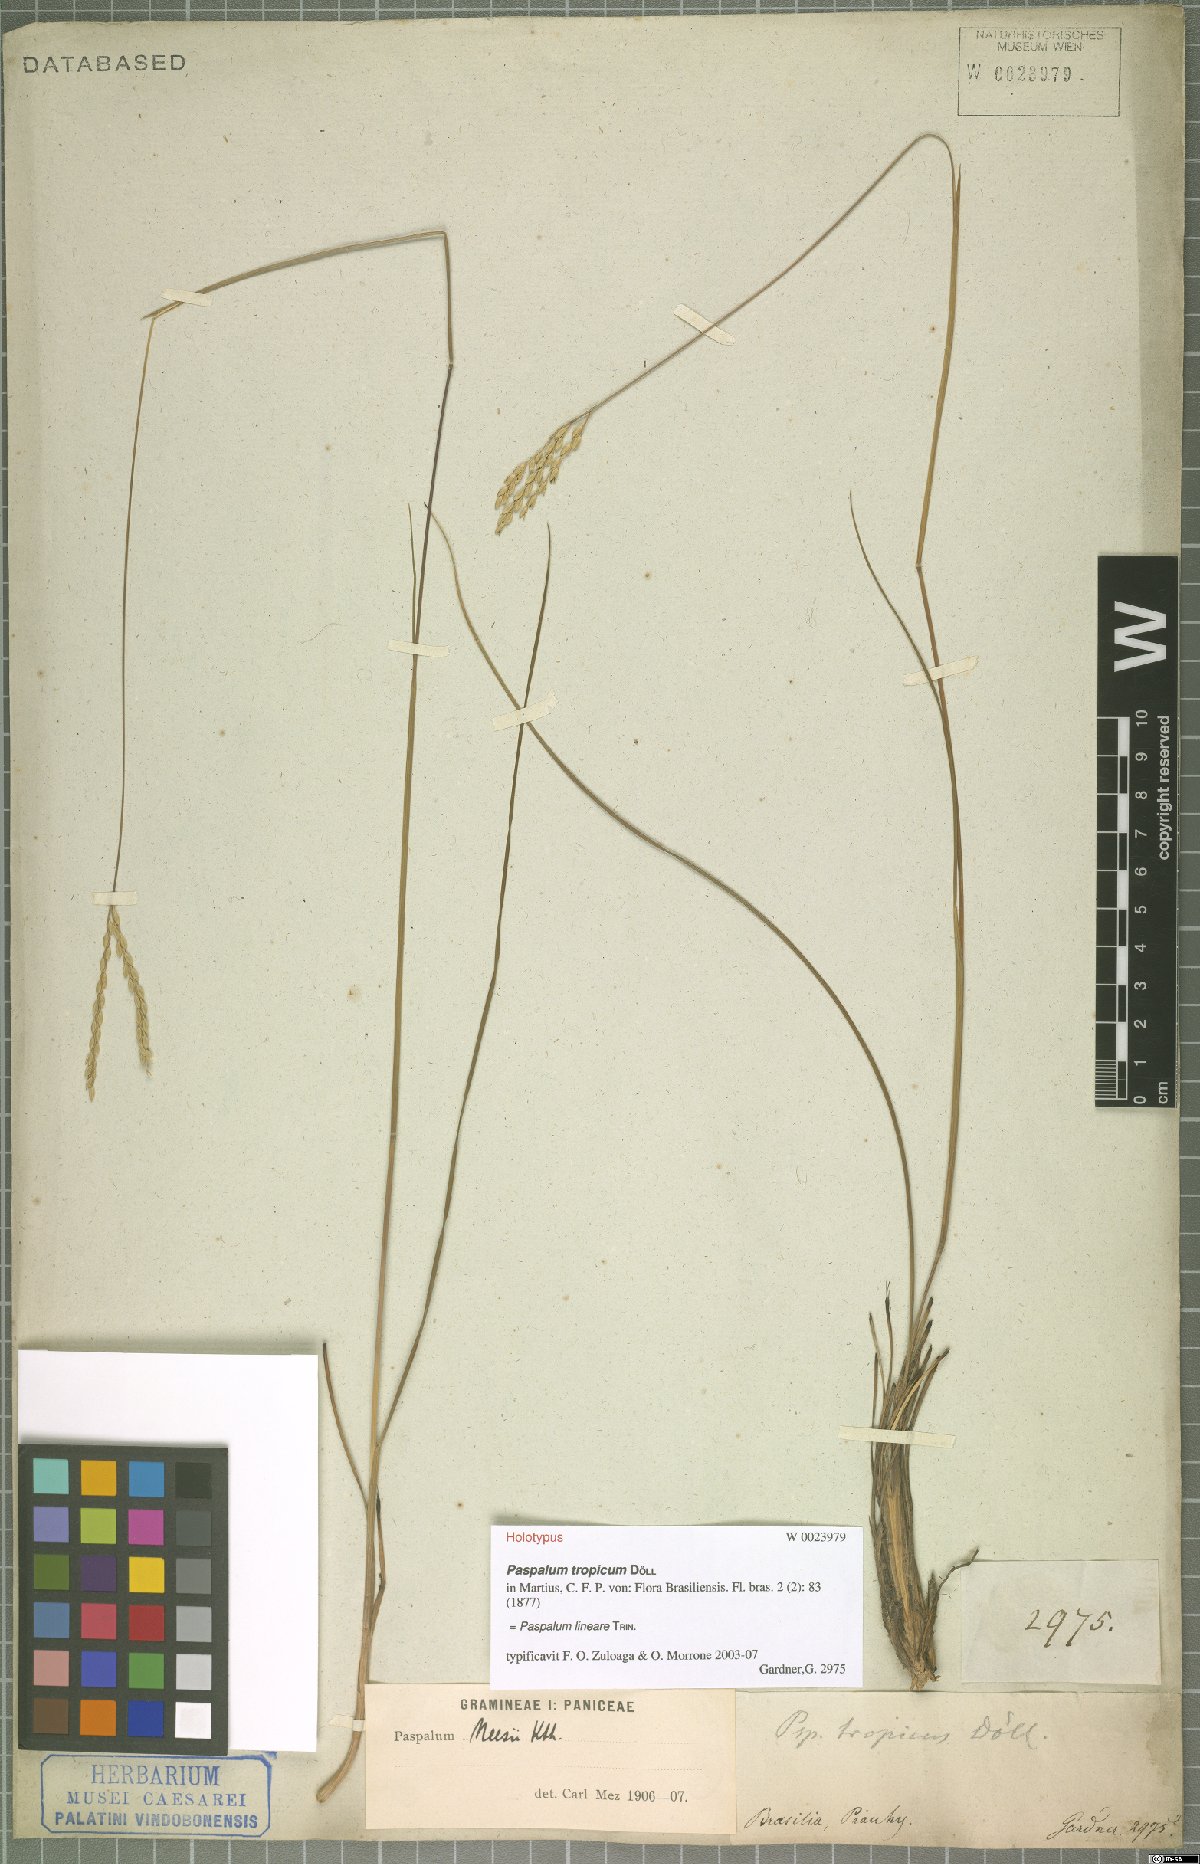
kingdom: Plantae
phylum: Tracheophyta
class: Liliopsida
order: Poales
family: Poaceae
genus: Paspalum
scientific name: Paspalum lineare
